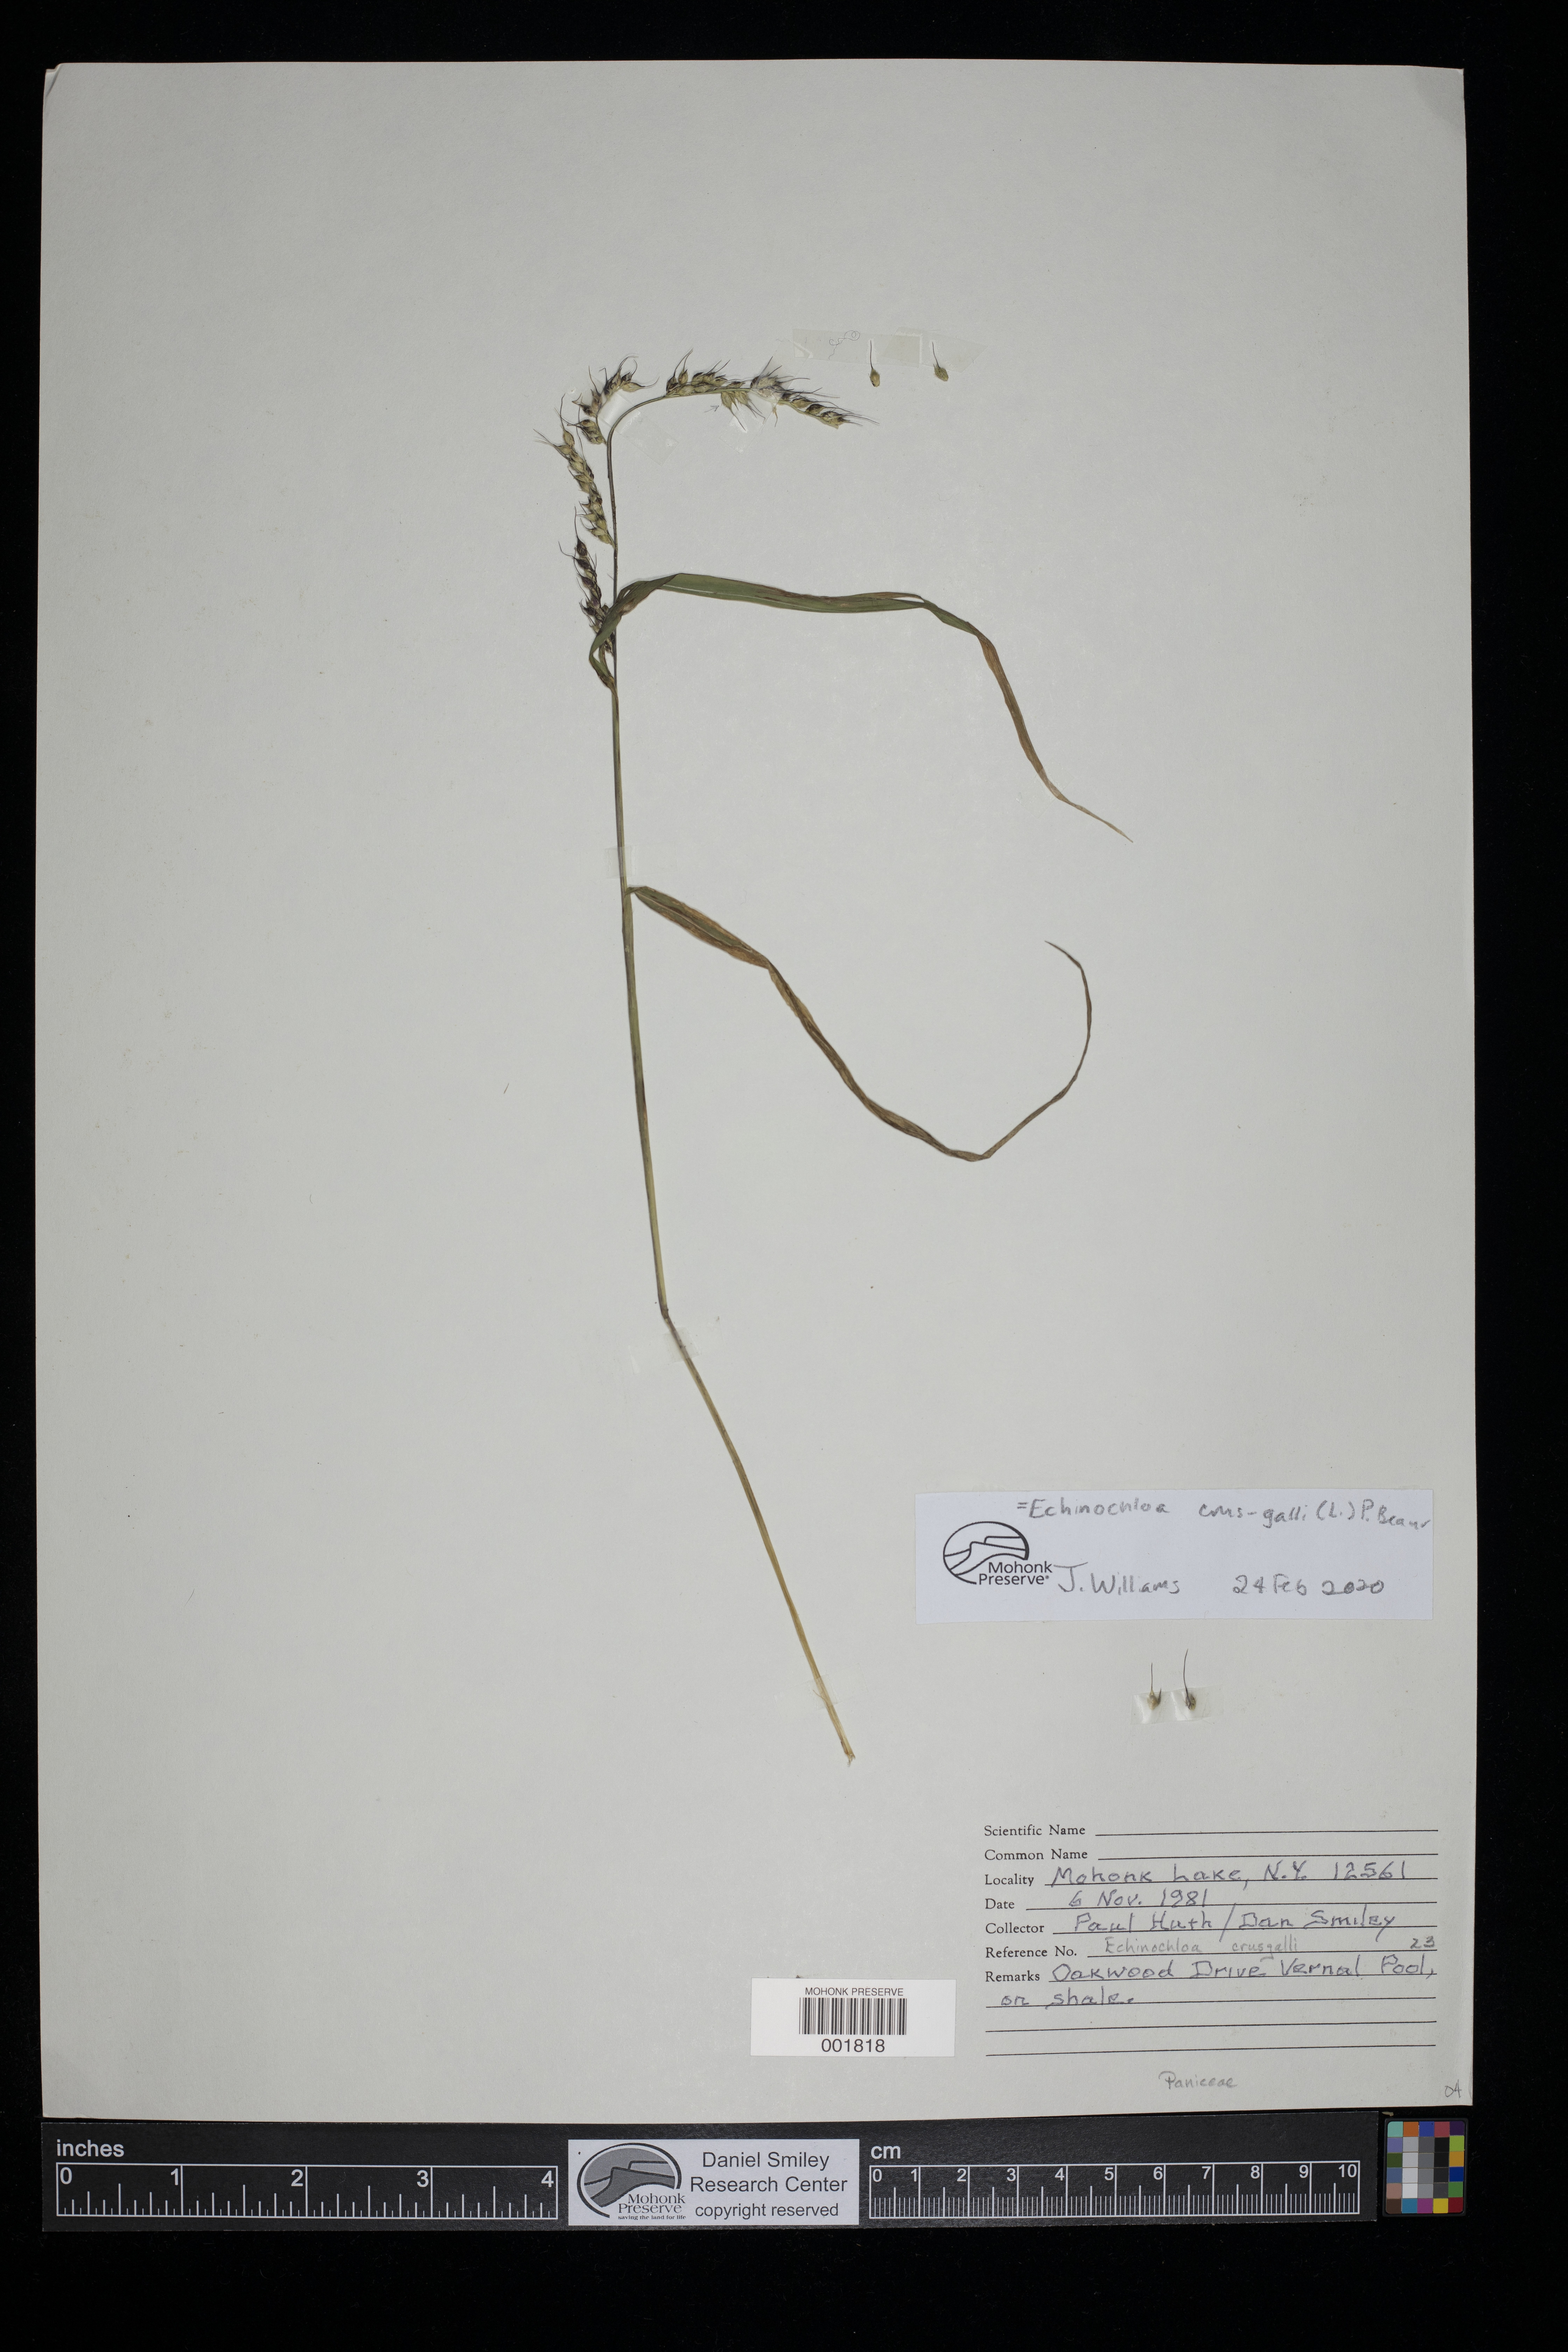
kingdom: Plantae
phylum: Tracheophyta
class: Liliopsida
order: Poales
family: Poaceae
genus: Echinochloa
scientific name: Echinochloa crus-galli
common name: Cockspur
